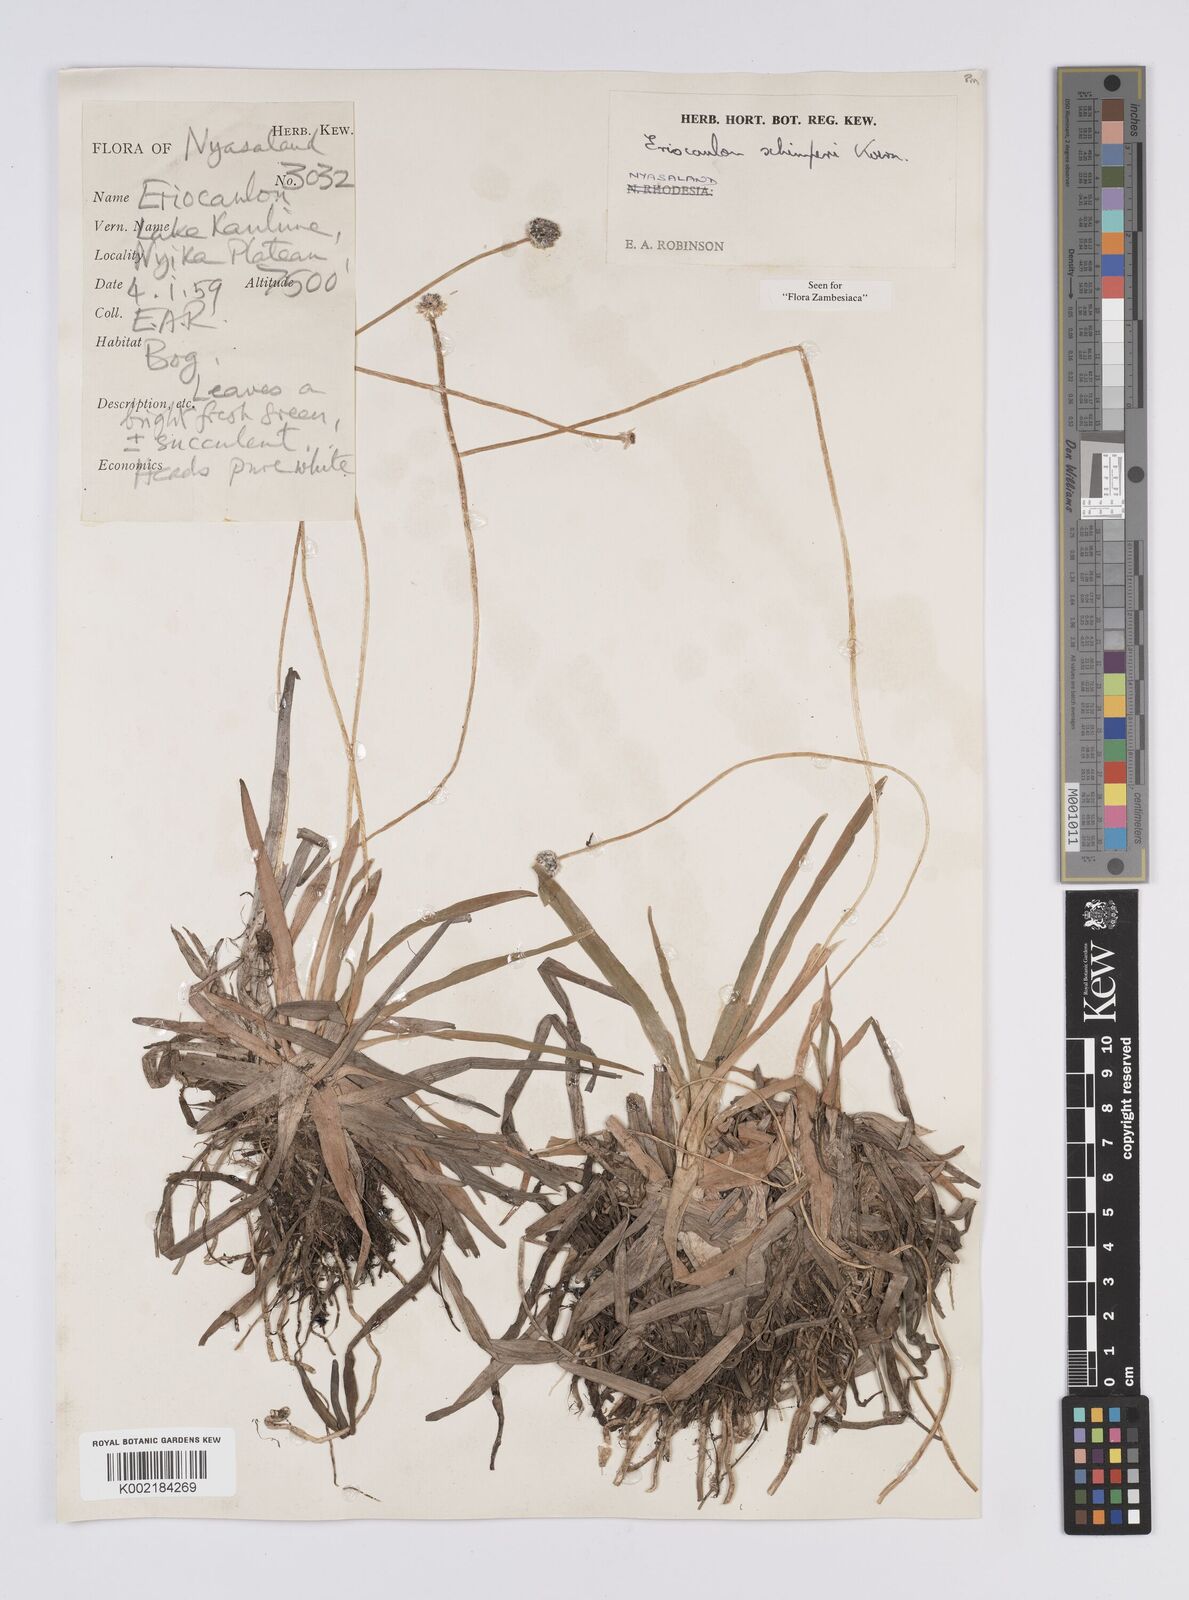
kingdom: Plantae
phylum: Tracheophyta
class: Liliopsida
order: Poales
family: Eriocaulaceae
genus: Eriocaulon
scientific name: Eriocaulon schimperi
